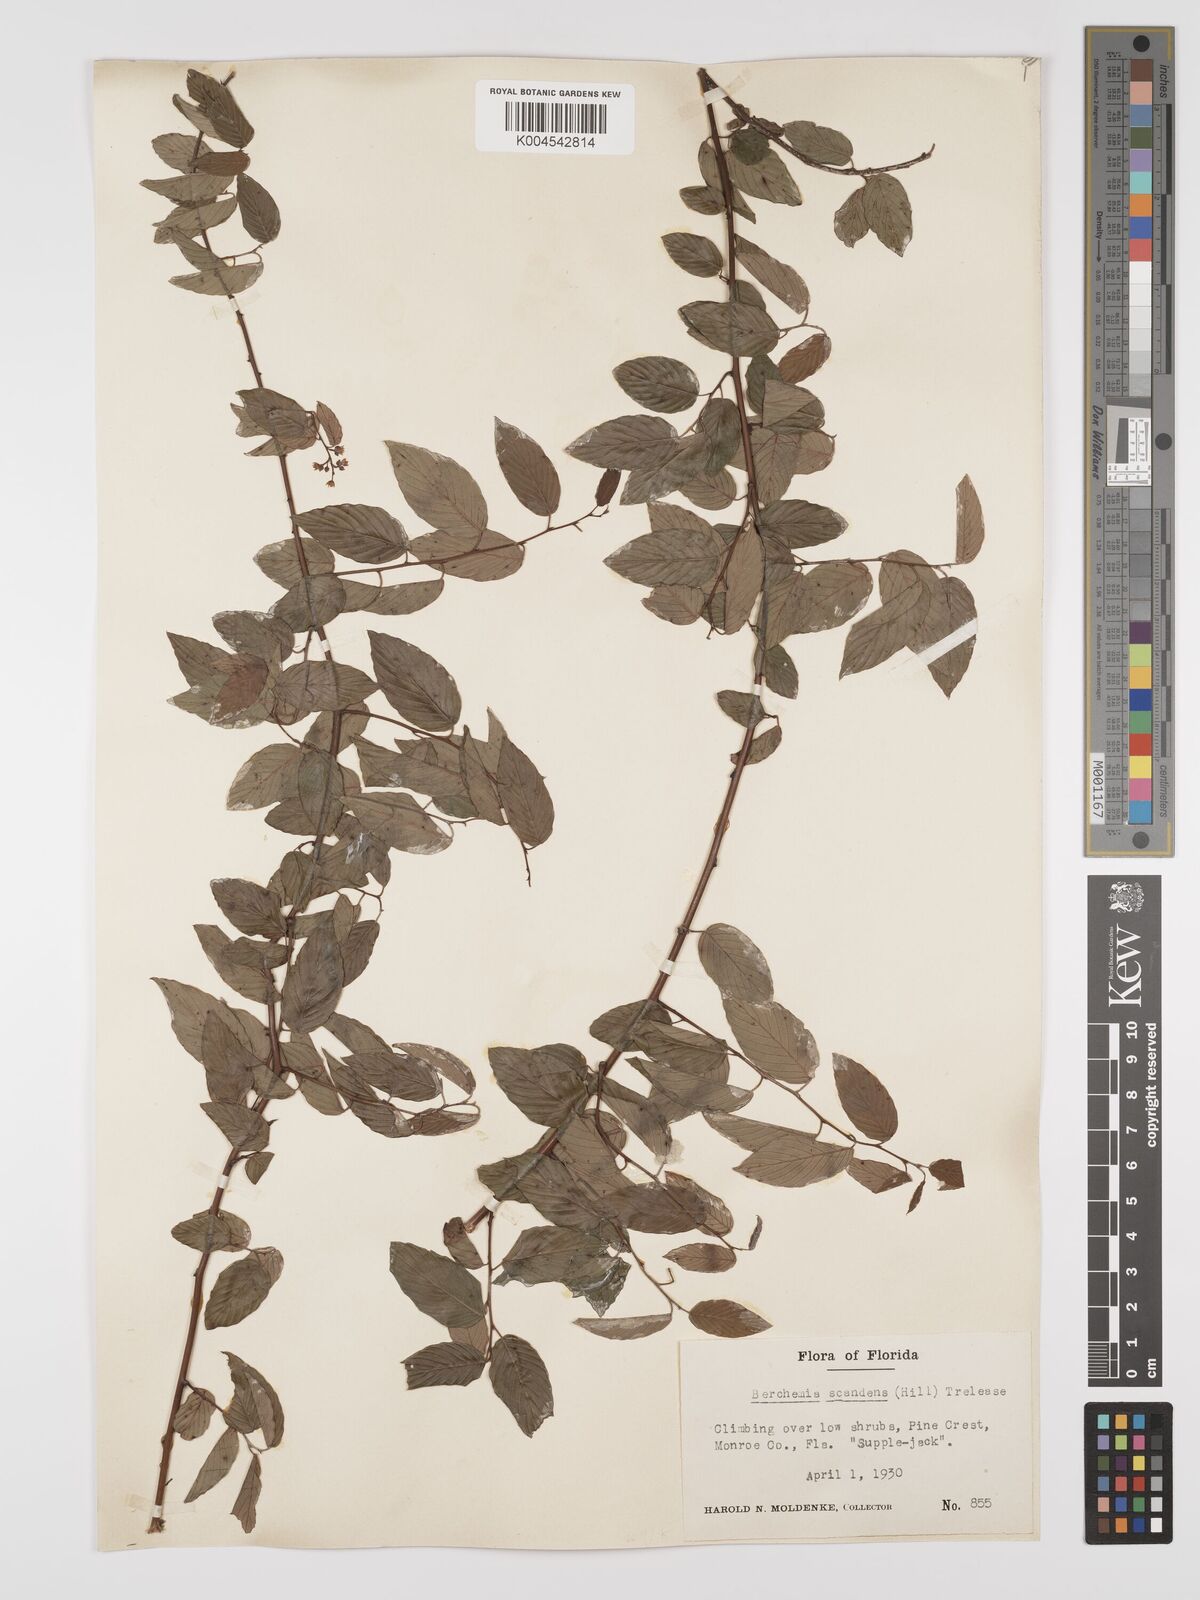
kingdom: Plantae
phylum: Tracheophyta
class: Magnoliopsida
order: Rosales
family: Rhamnaceae
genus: Berchemia
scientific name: Berchemia scandens
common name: Supplejack
